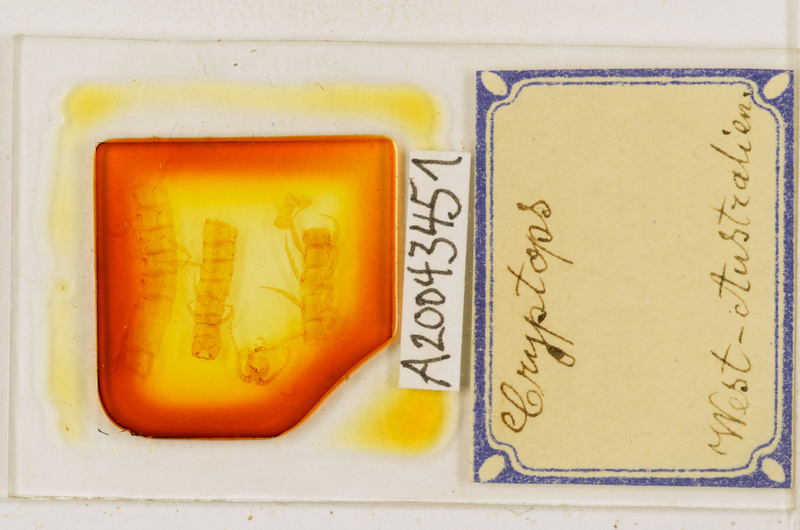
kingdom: Animalia
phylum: Arthropoda
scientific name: Arthropoda
